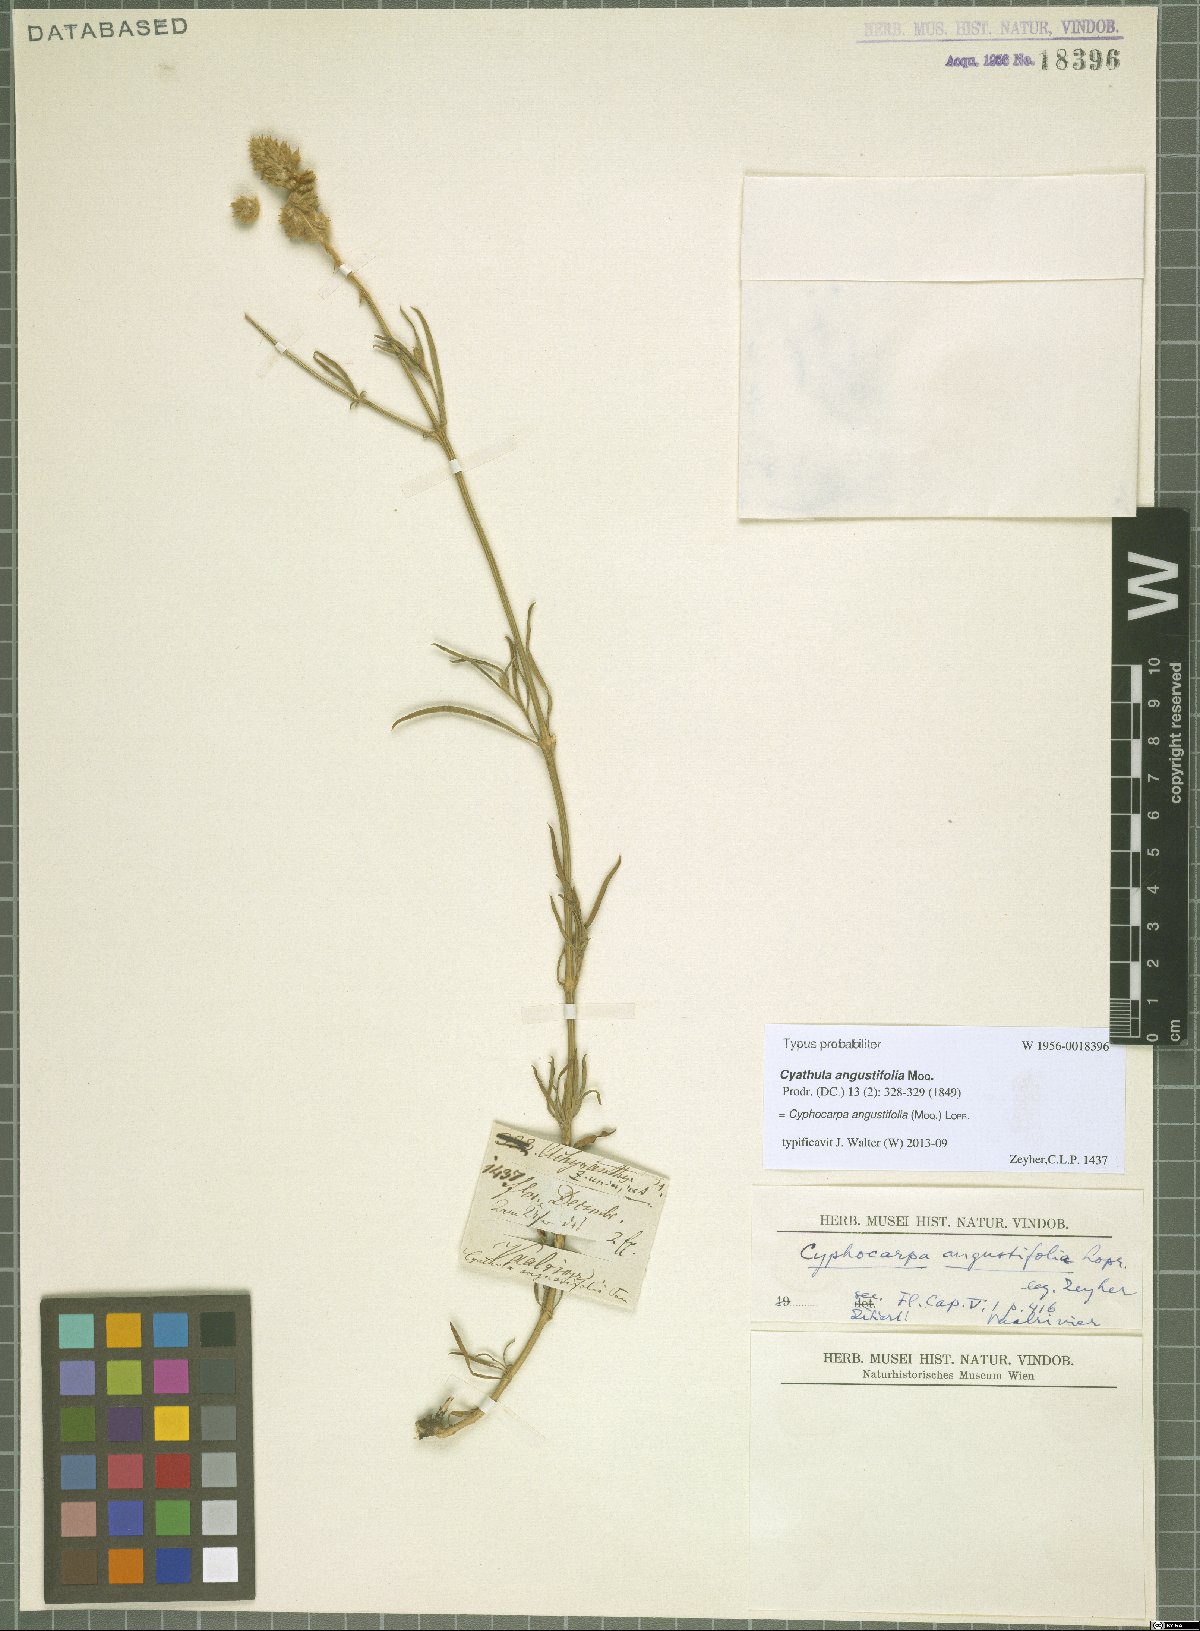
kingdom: Plantae
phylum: Tracheophyta
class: Magnoliopsida
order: Caryophyllales
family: Amaranthaceae
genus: Cyphocarpa
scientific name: Cyphocarpa angustifolia
